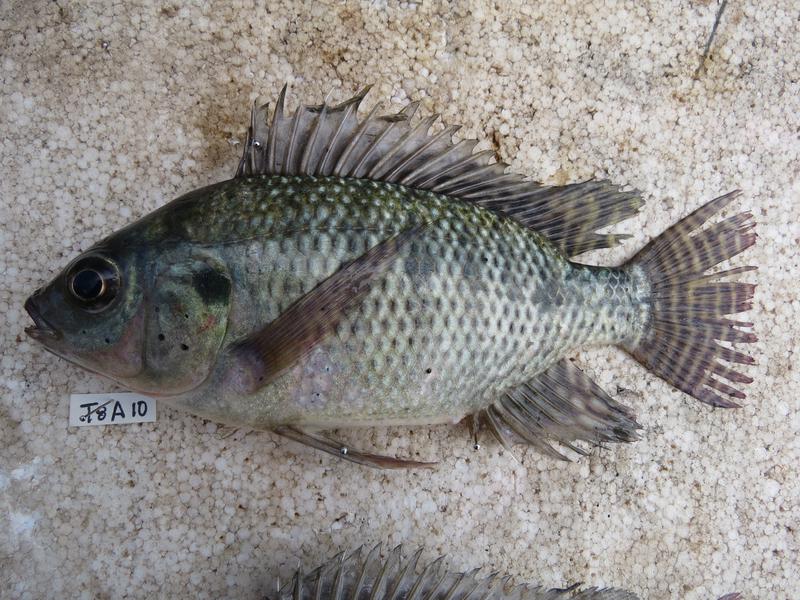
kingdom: Animalia
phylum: Chordata
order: Perciformes
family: Cichlidae
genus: Oreochromis
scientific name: Oreochromis niloticus
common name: Nile tilapia
